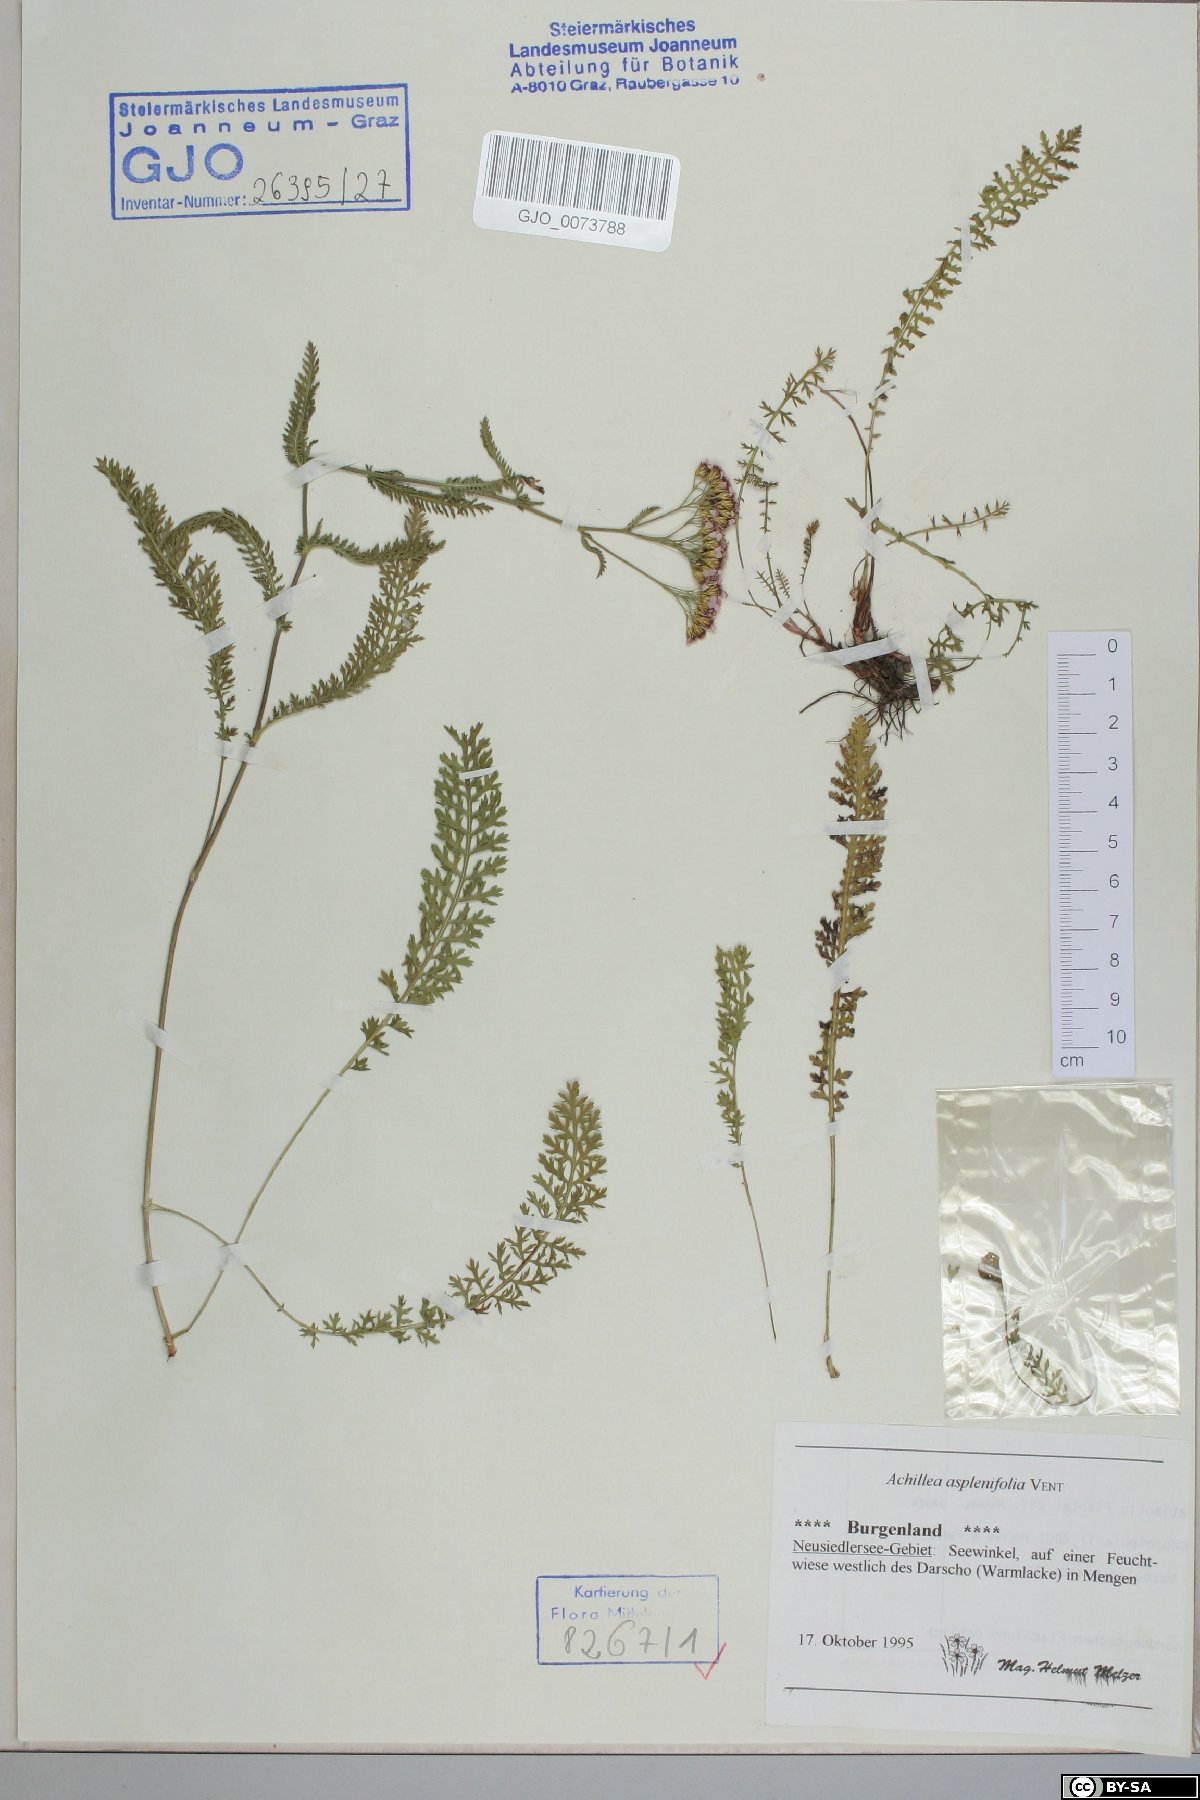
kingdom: Plantae
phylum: Tracheophyta
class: Magnoliopsida
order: Asterales
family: Asteraceae
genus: Achillea
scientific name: Achillea aspleniifolia
